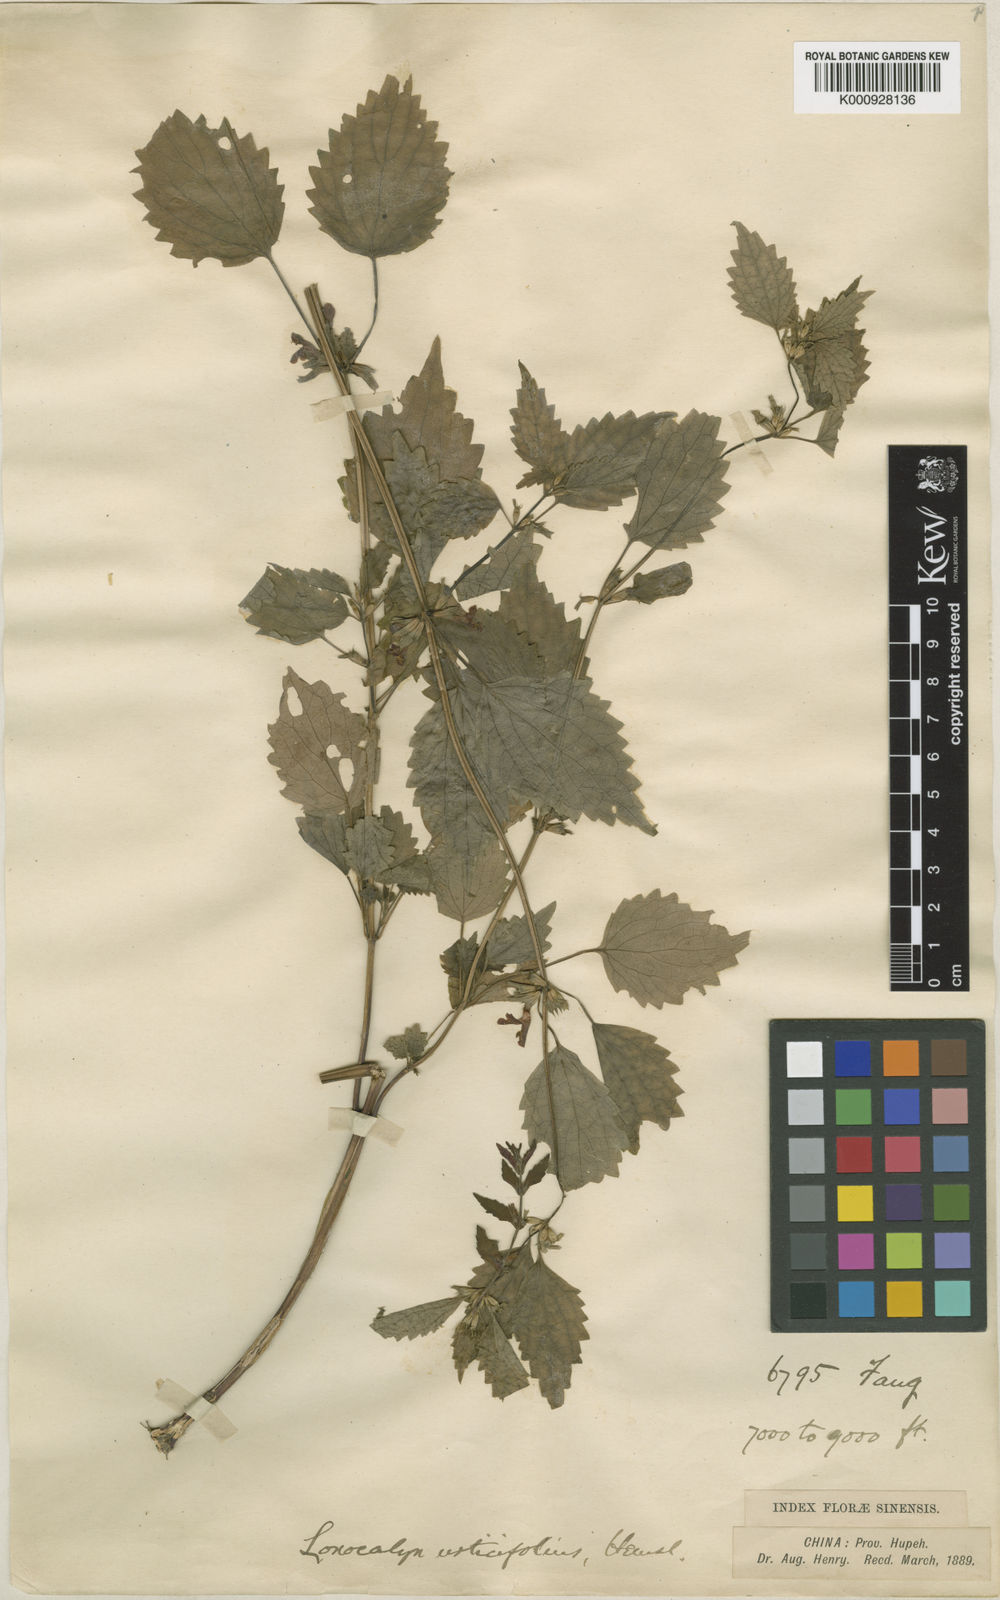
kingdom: Plantae
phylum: Tracheophyta
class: Magnoliopsida
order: Lamiales
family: Lamiaceae
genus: Loxocalyx
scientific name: Loxocalyx urticifolius
